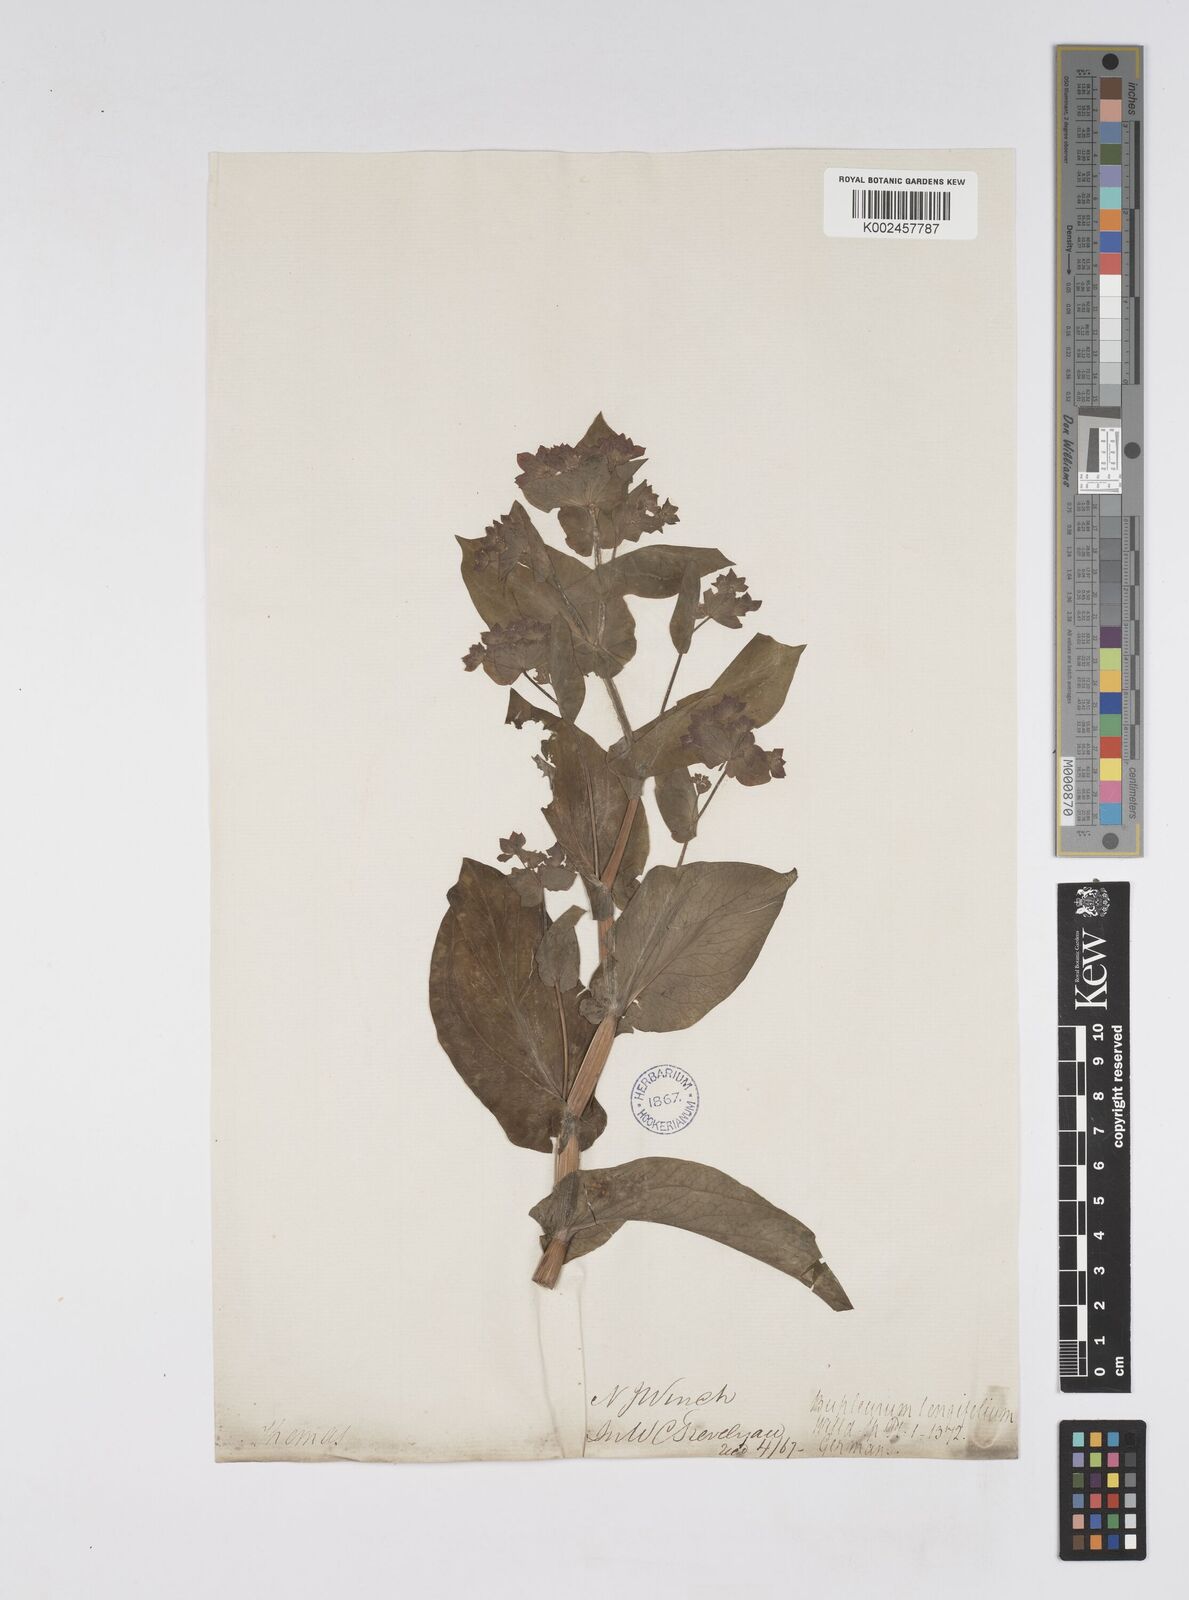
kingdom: Plantae
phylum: Tracheophyta
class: Magnoliopsida
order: Apiales
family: Apiaceae
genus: Bupleurum
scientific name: Bupleurum longifolium
